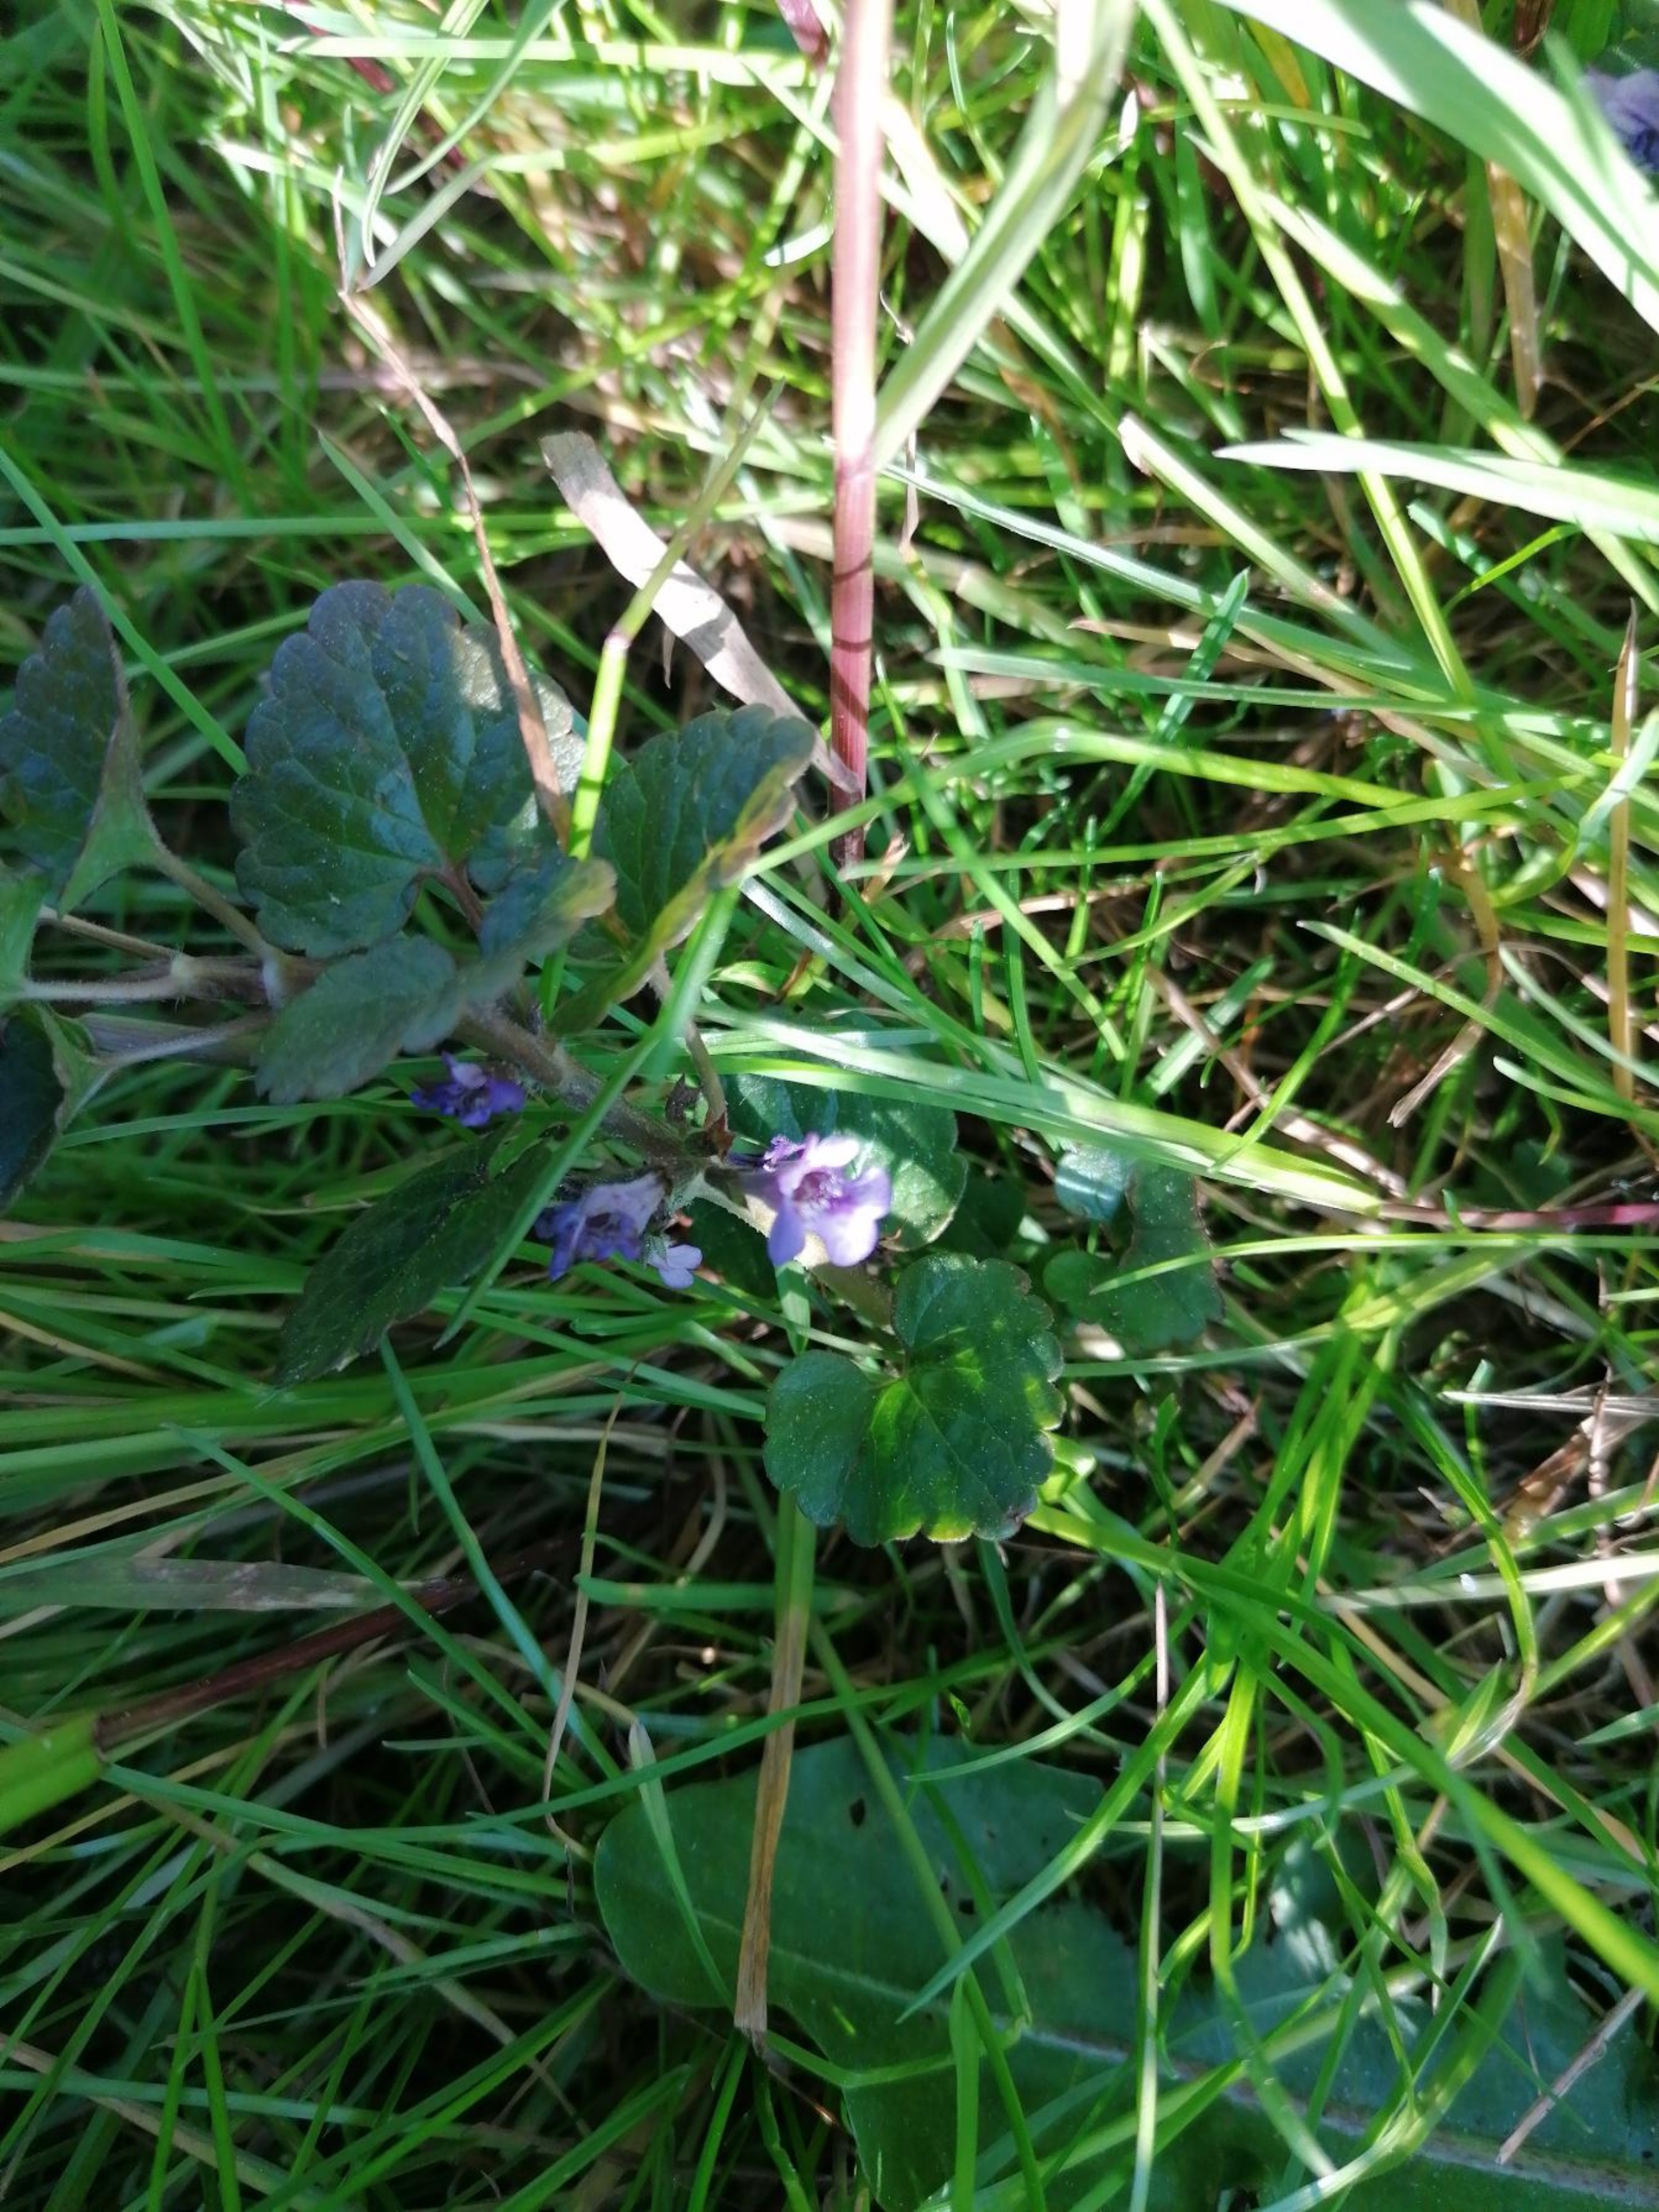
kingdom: Plantae
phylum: Tracheophyta
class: Magnoliopsida
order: Lamiales
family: Lamiaceae
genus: Glechoma
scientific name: Glechoma hederacea
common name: Korsknap
